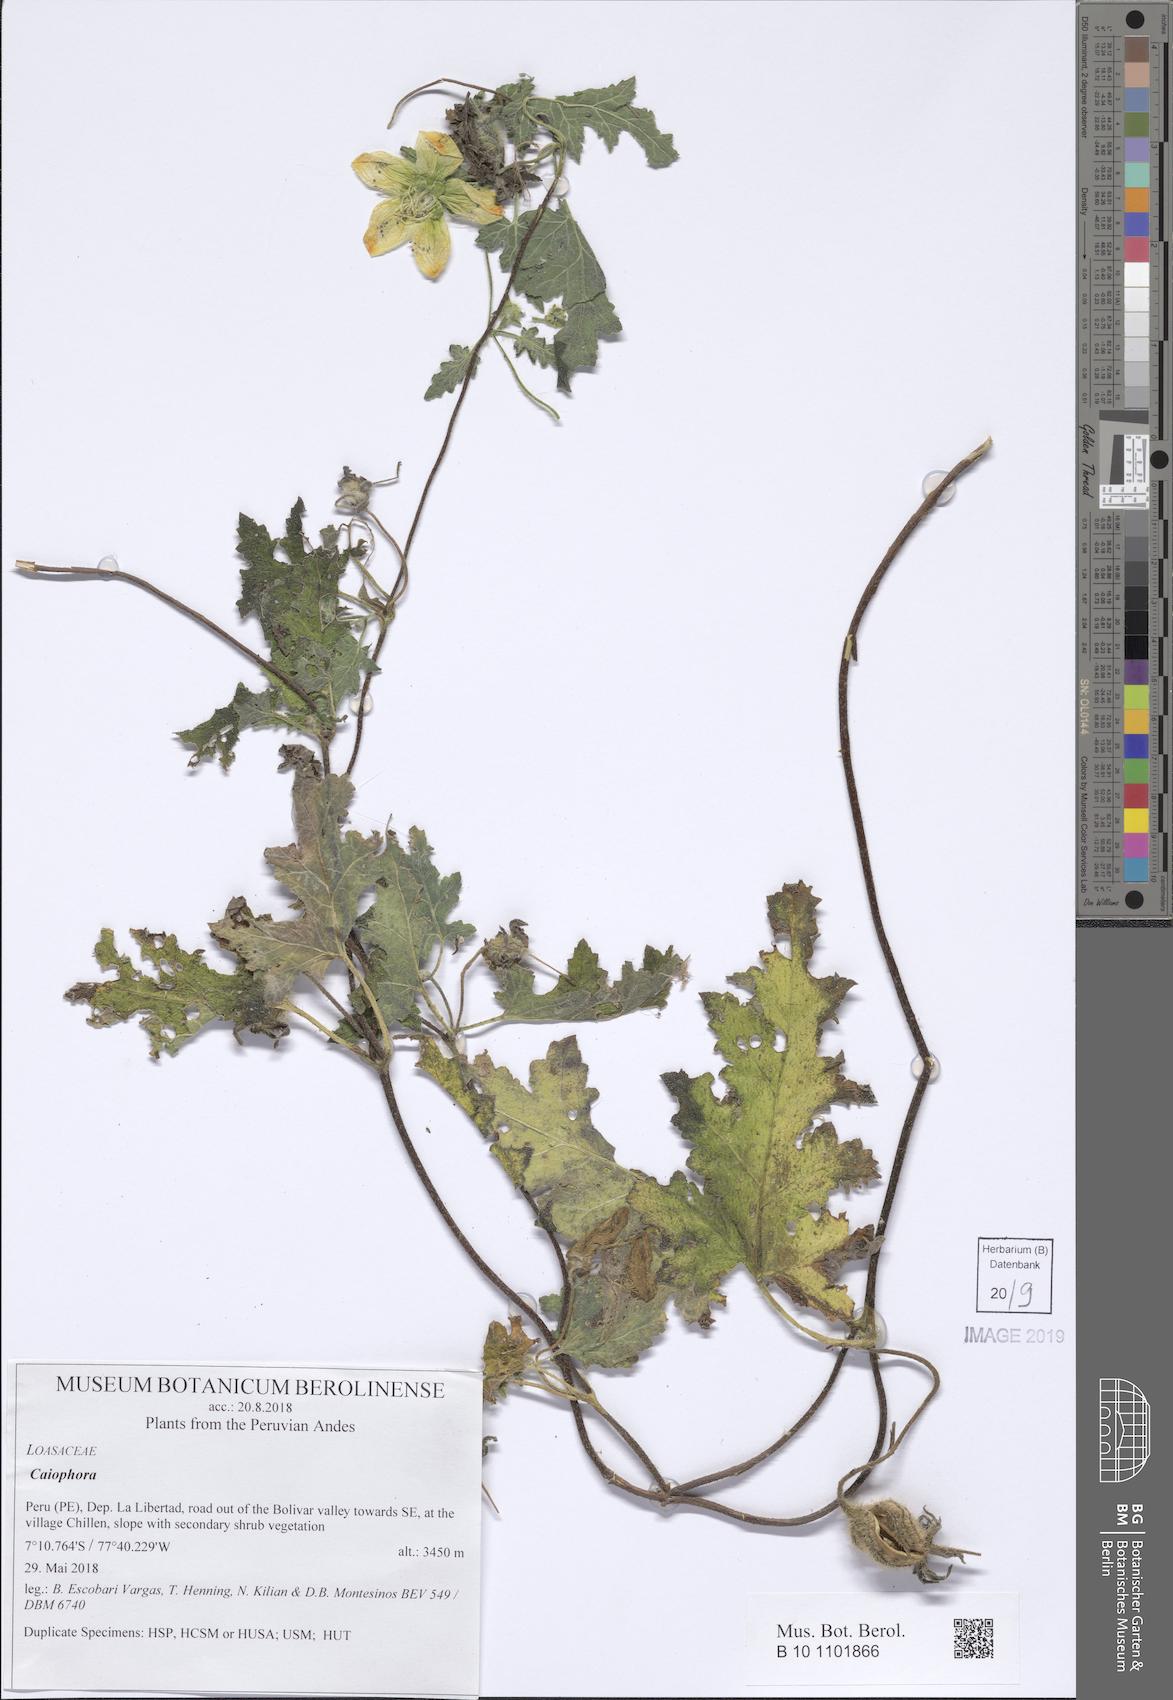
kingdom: Plantae
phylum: Tracheophyta
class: Magnoliopsida
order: Cornales
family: Loasaceae
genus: Caiophora
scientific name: Caiophora cirsiifolia
